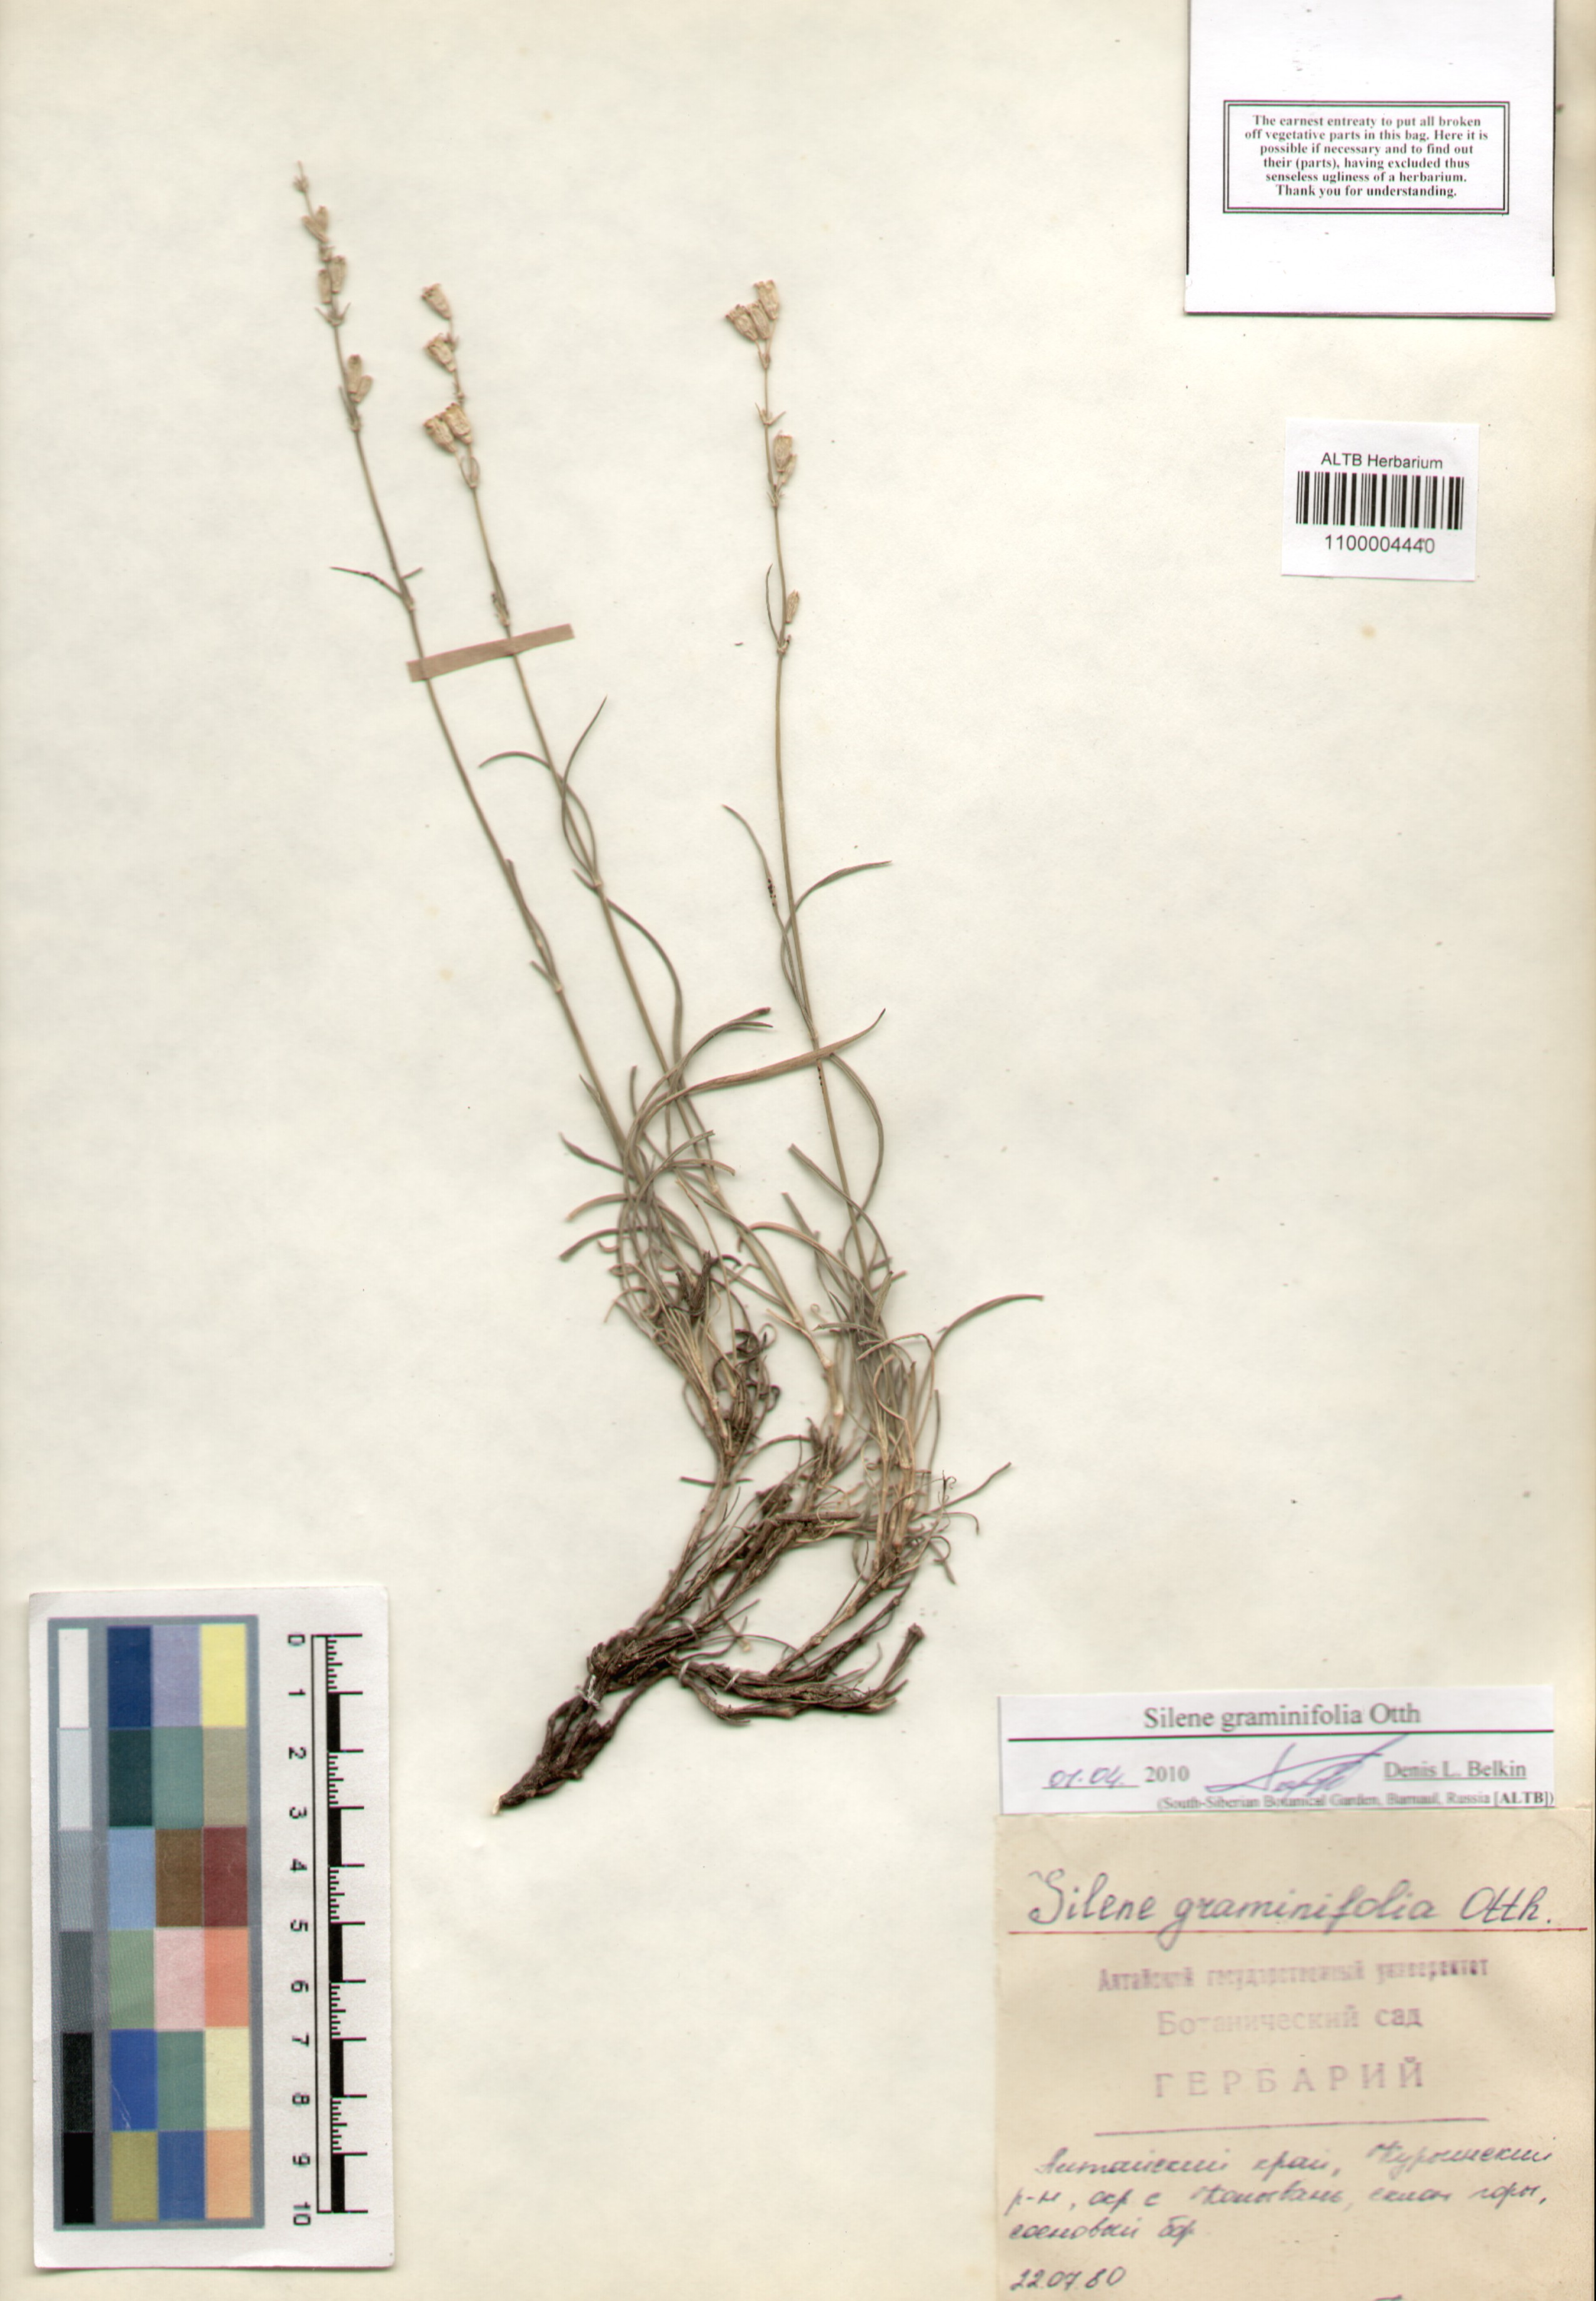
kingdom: Plantae
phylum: Tracheophyta
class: Magnoliopsida
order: Caryophyllales
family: Caryophyllaceae
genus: Silene
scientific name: Silene graminifolia
